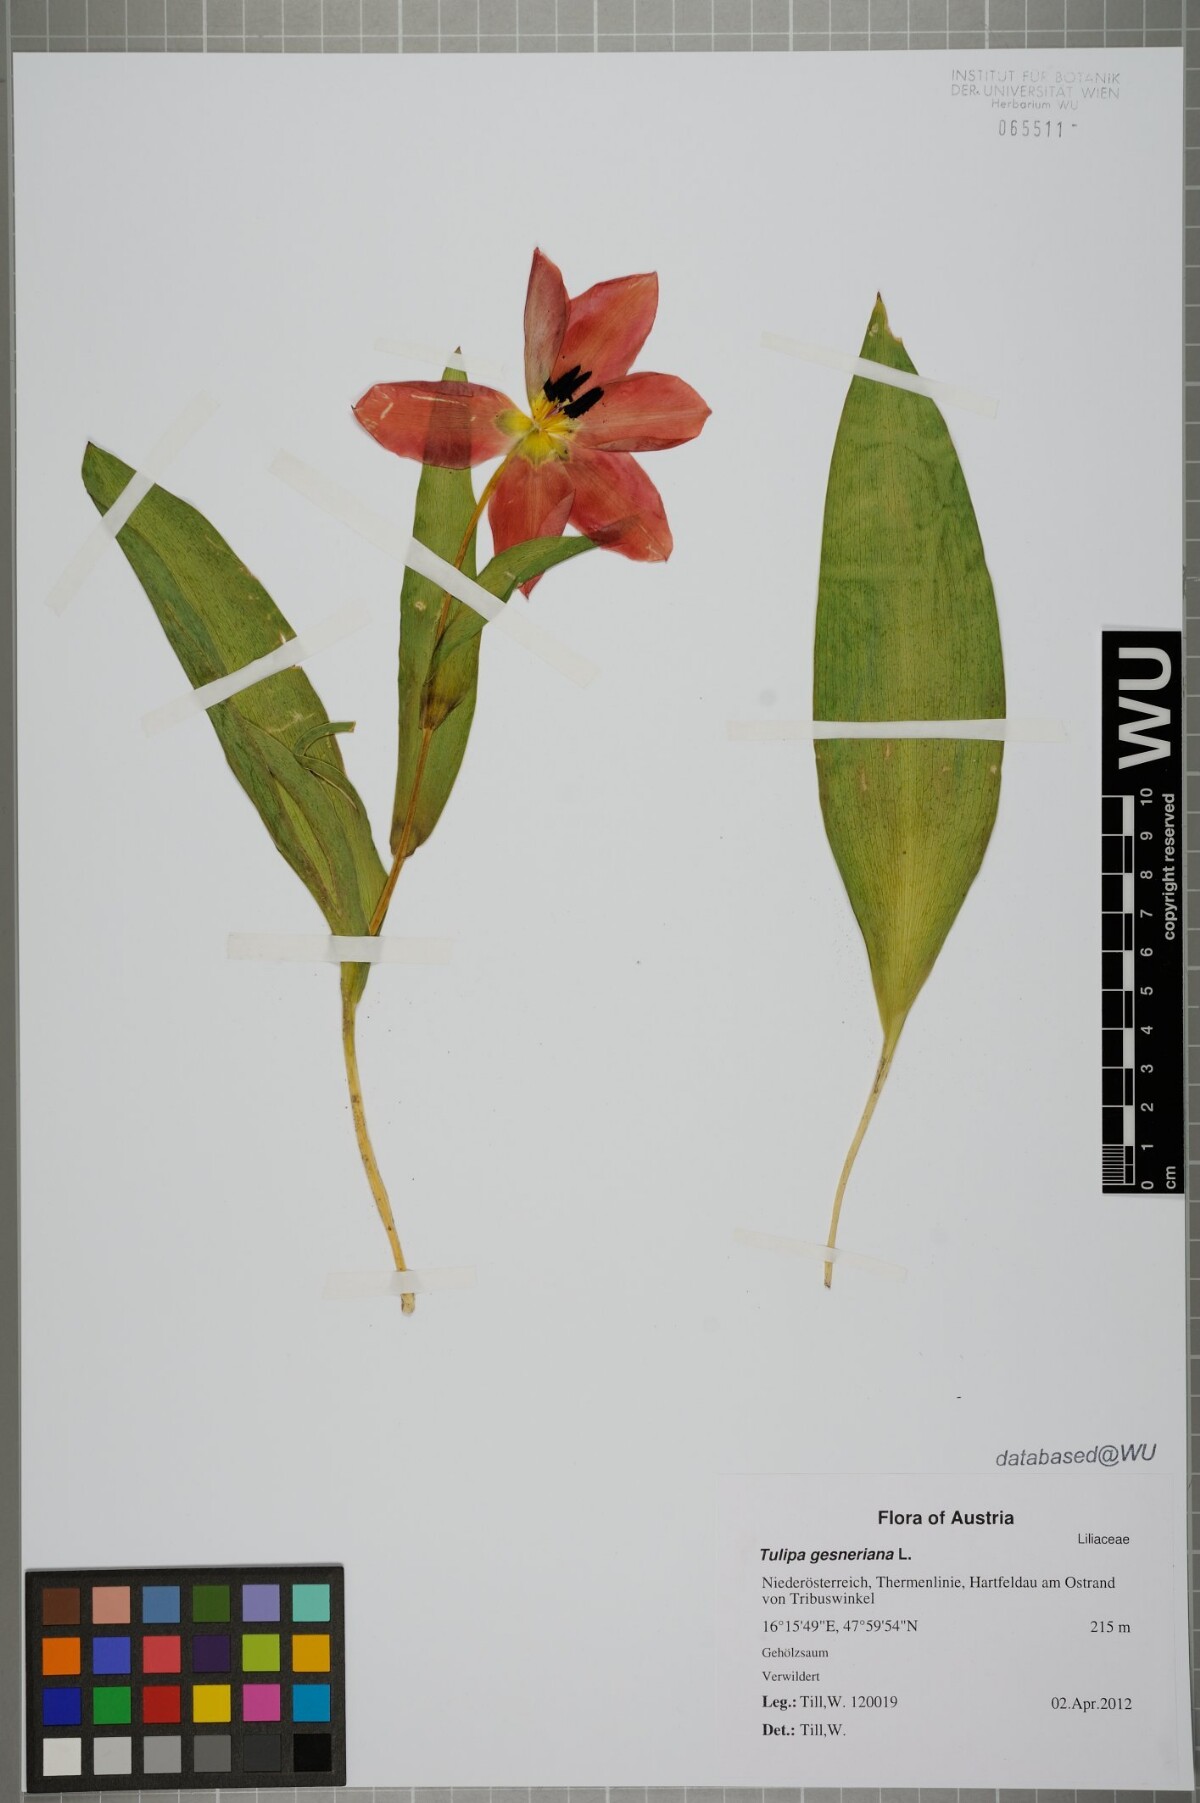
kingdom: Plantae
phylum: Tracheophyta
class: Liliopsida
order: Liliales
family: Liliaceae
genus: Tulipa
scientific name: Tulipa gesneriana
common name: Garden tulip
